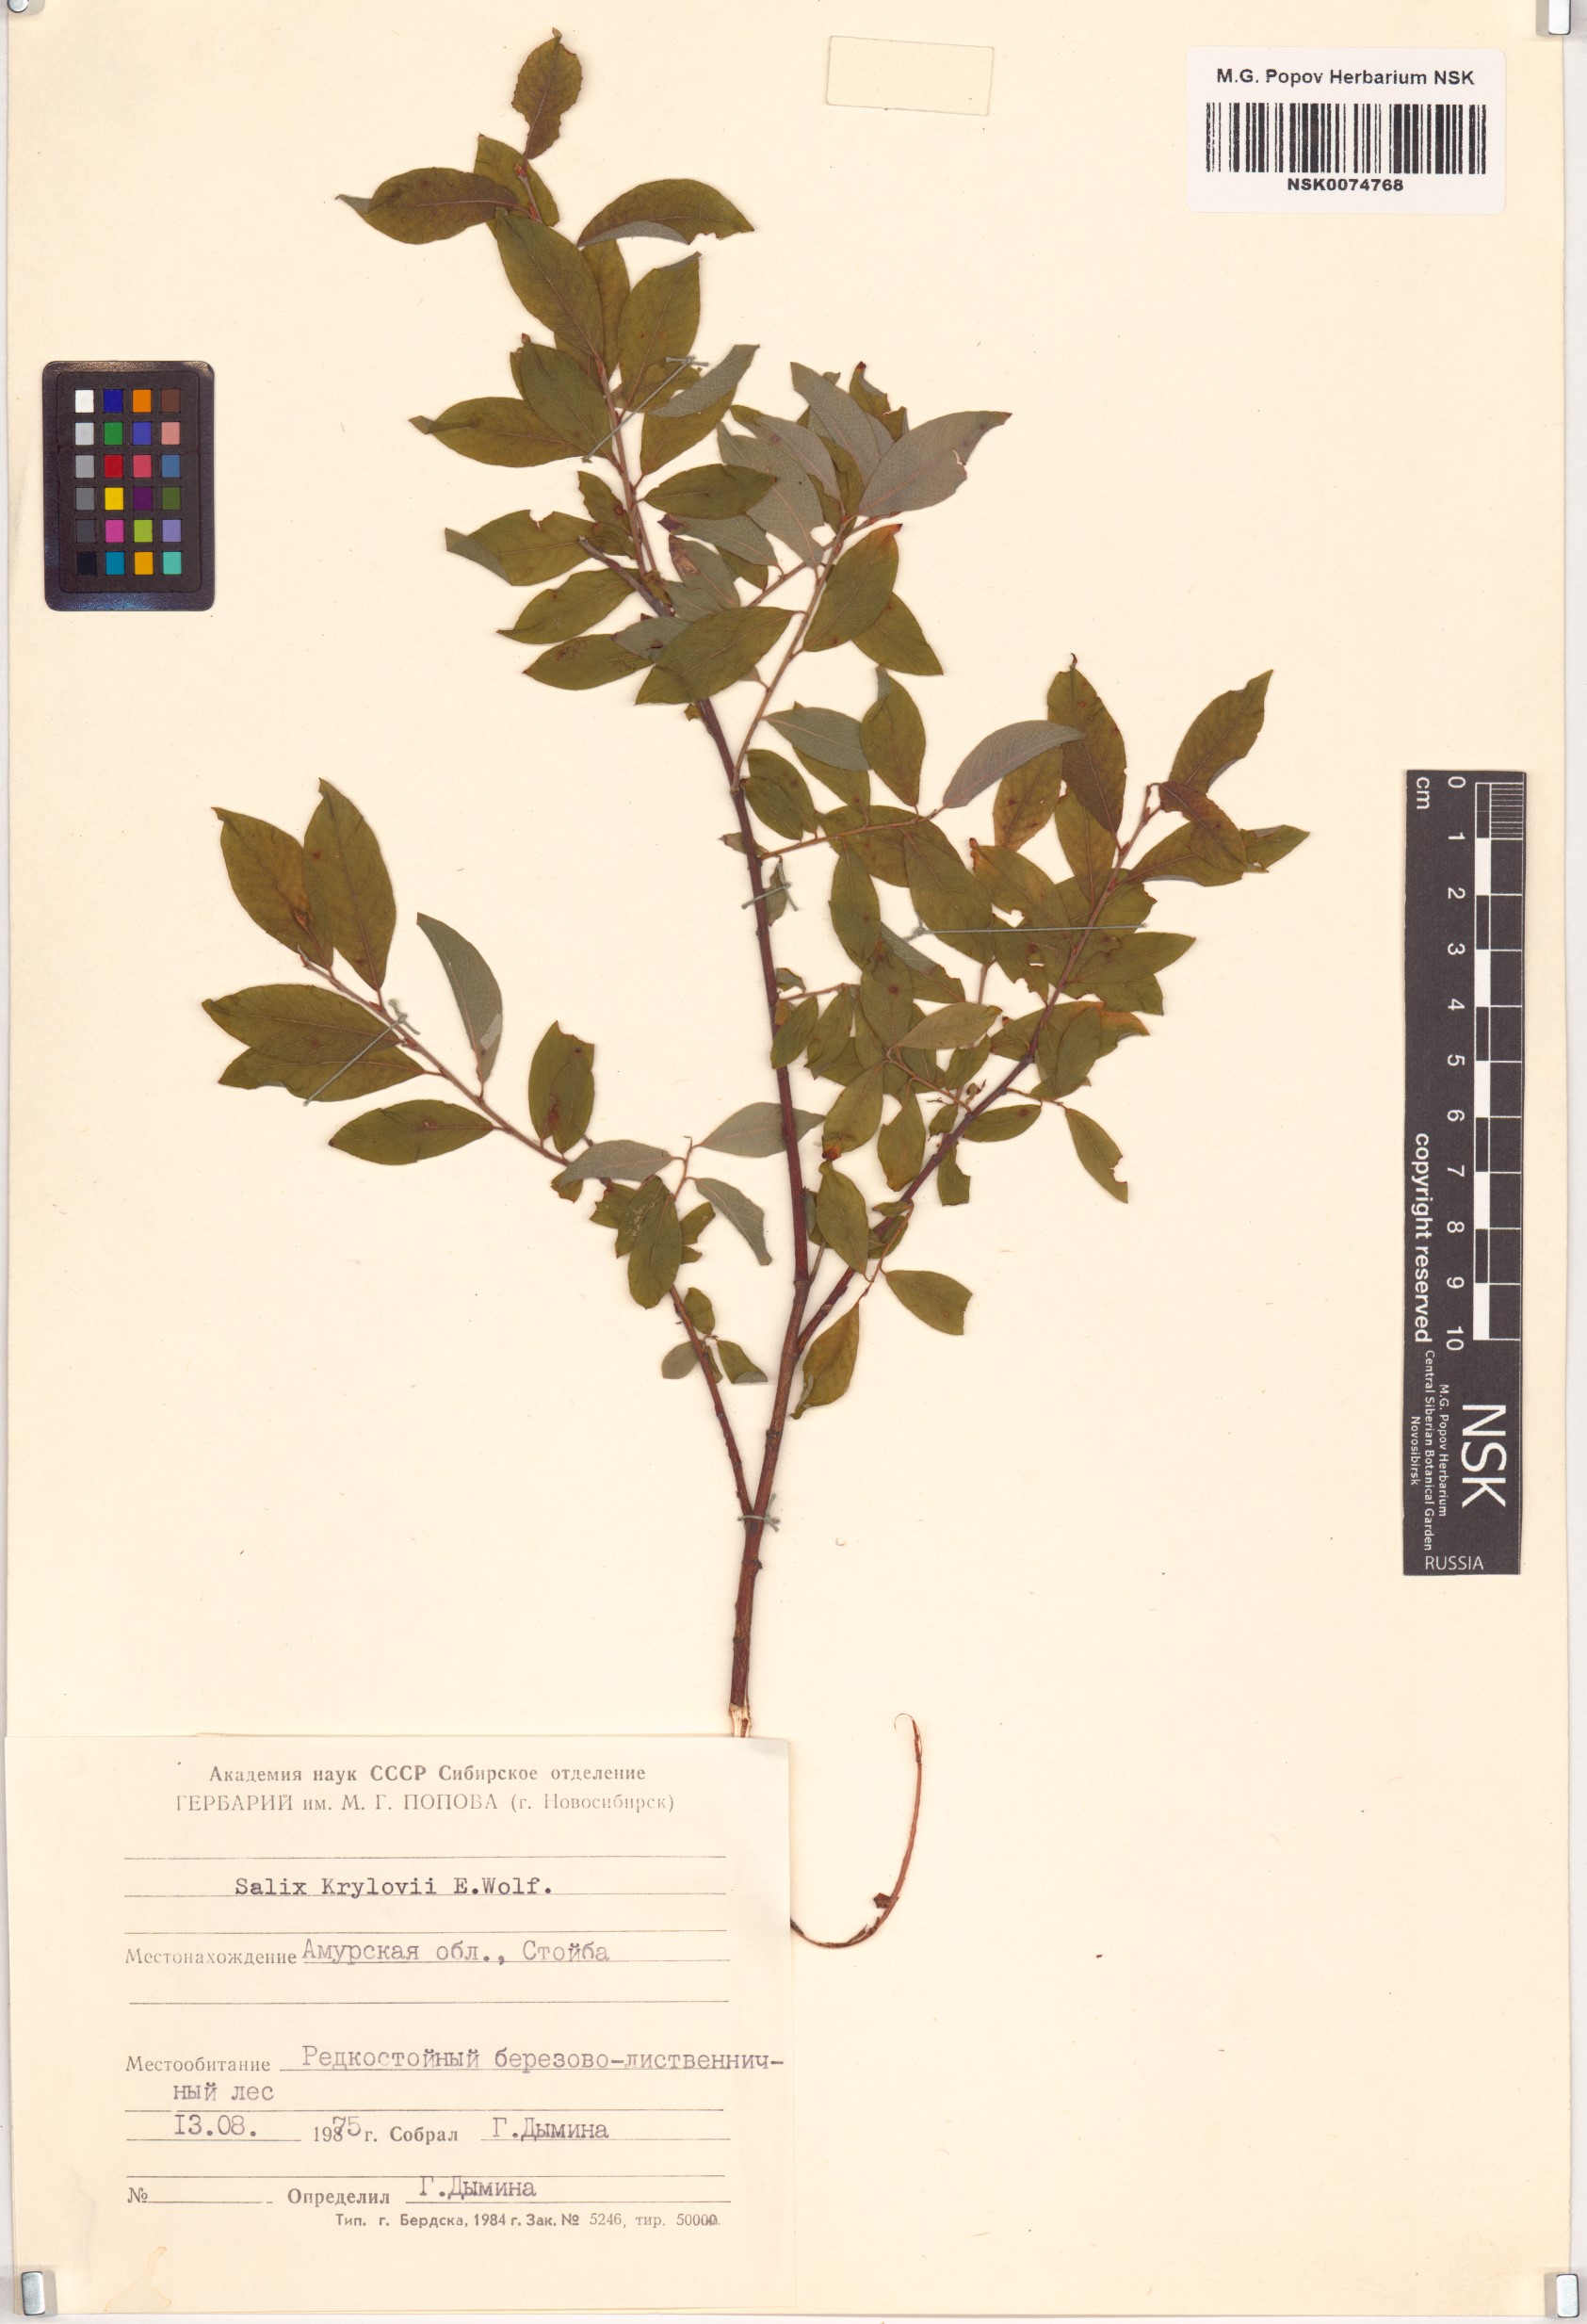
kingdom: Plantae
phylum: Tracheophyta
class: Magnoliopsida
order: Malpighiales
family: Salicaceae
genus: Salix
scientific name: Salix krylovii
